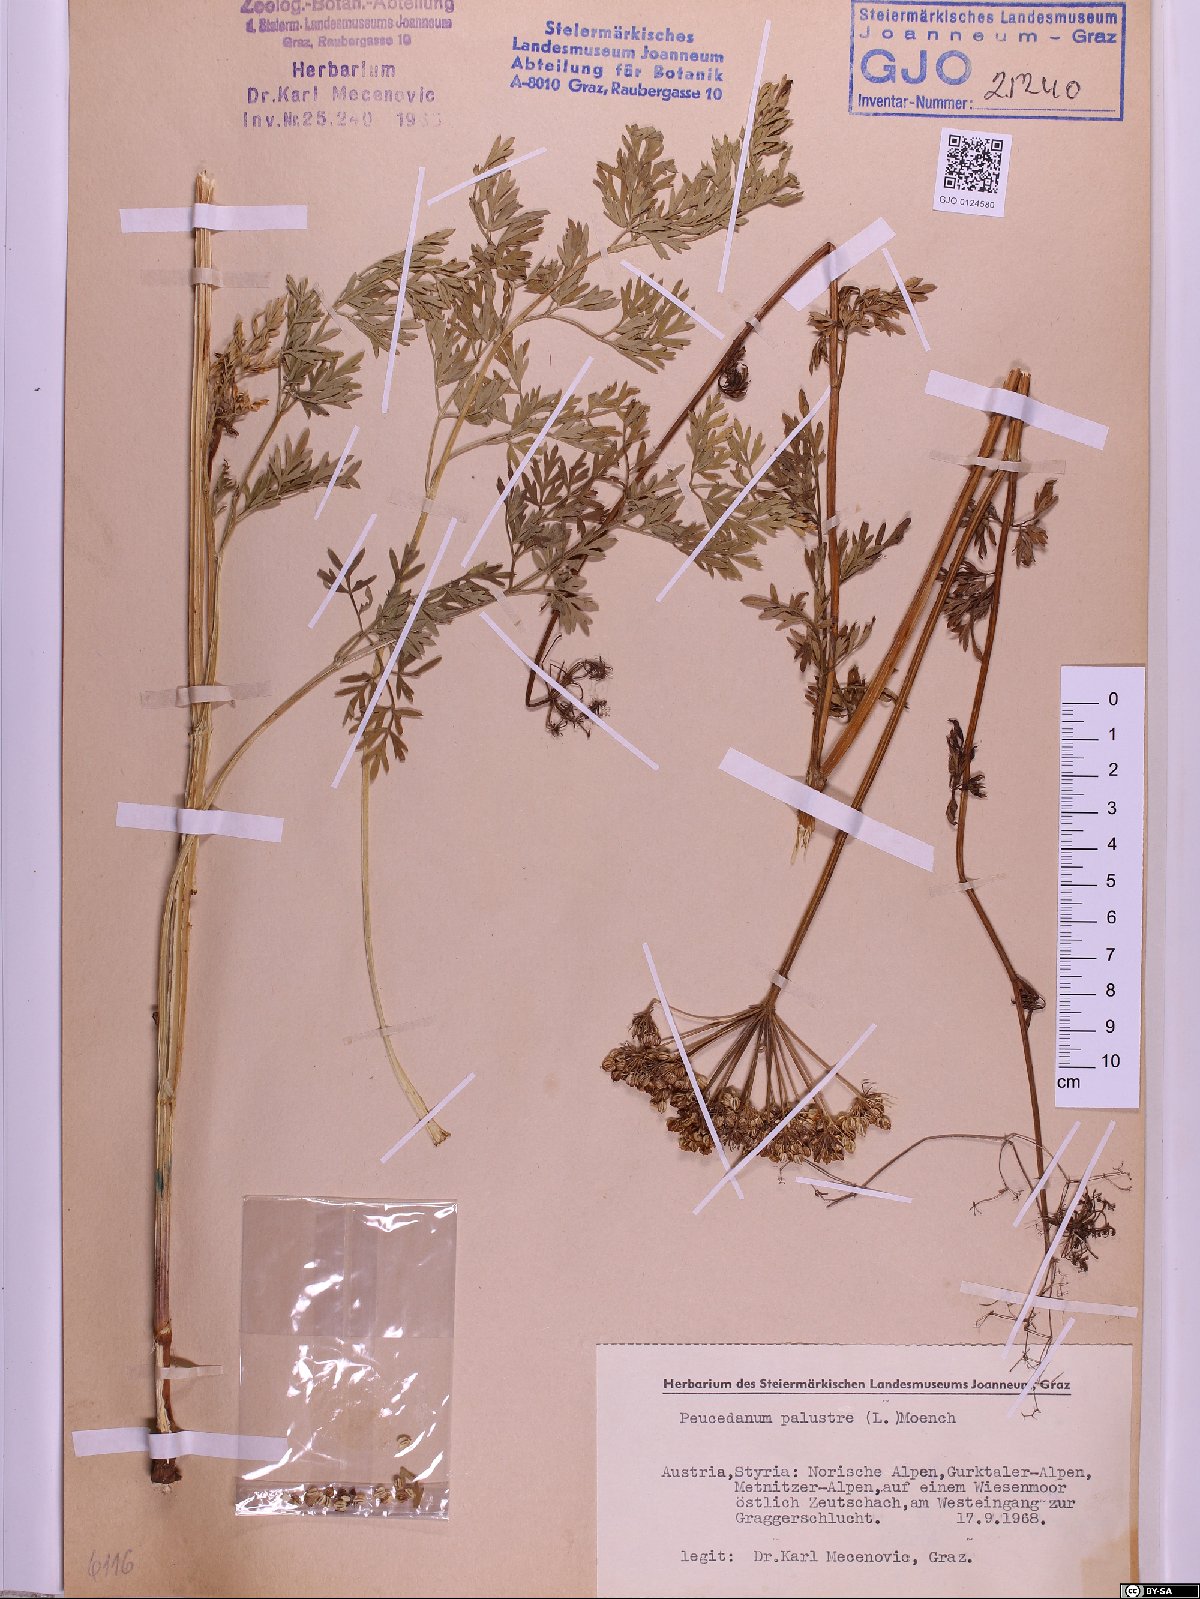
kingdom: Plantae
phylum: Tracheophyta
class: Magnoliopsida
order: Apiales
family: Apiaceae
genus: Thysselinum
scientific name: Thysselinum palustre
